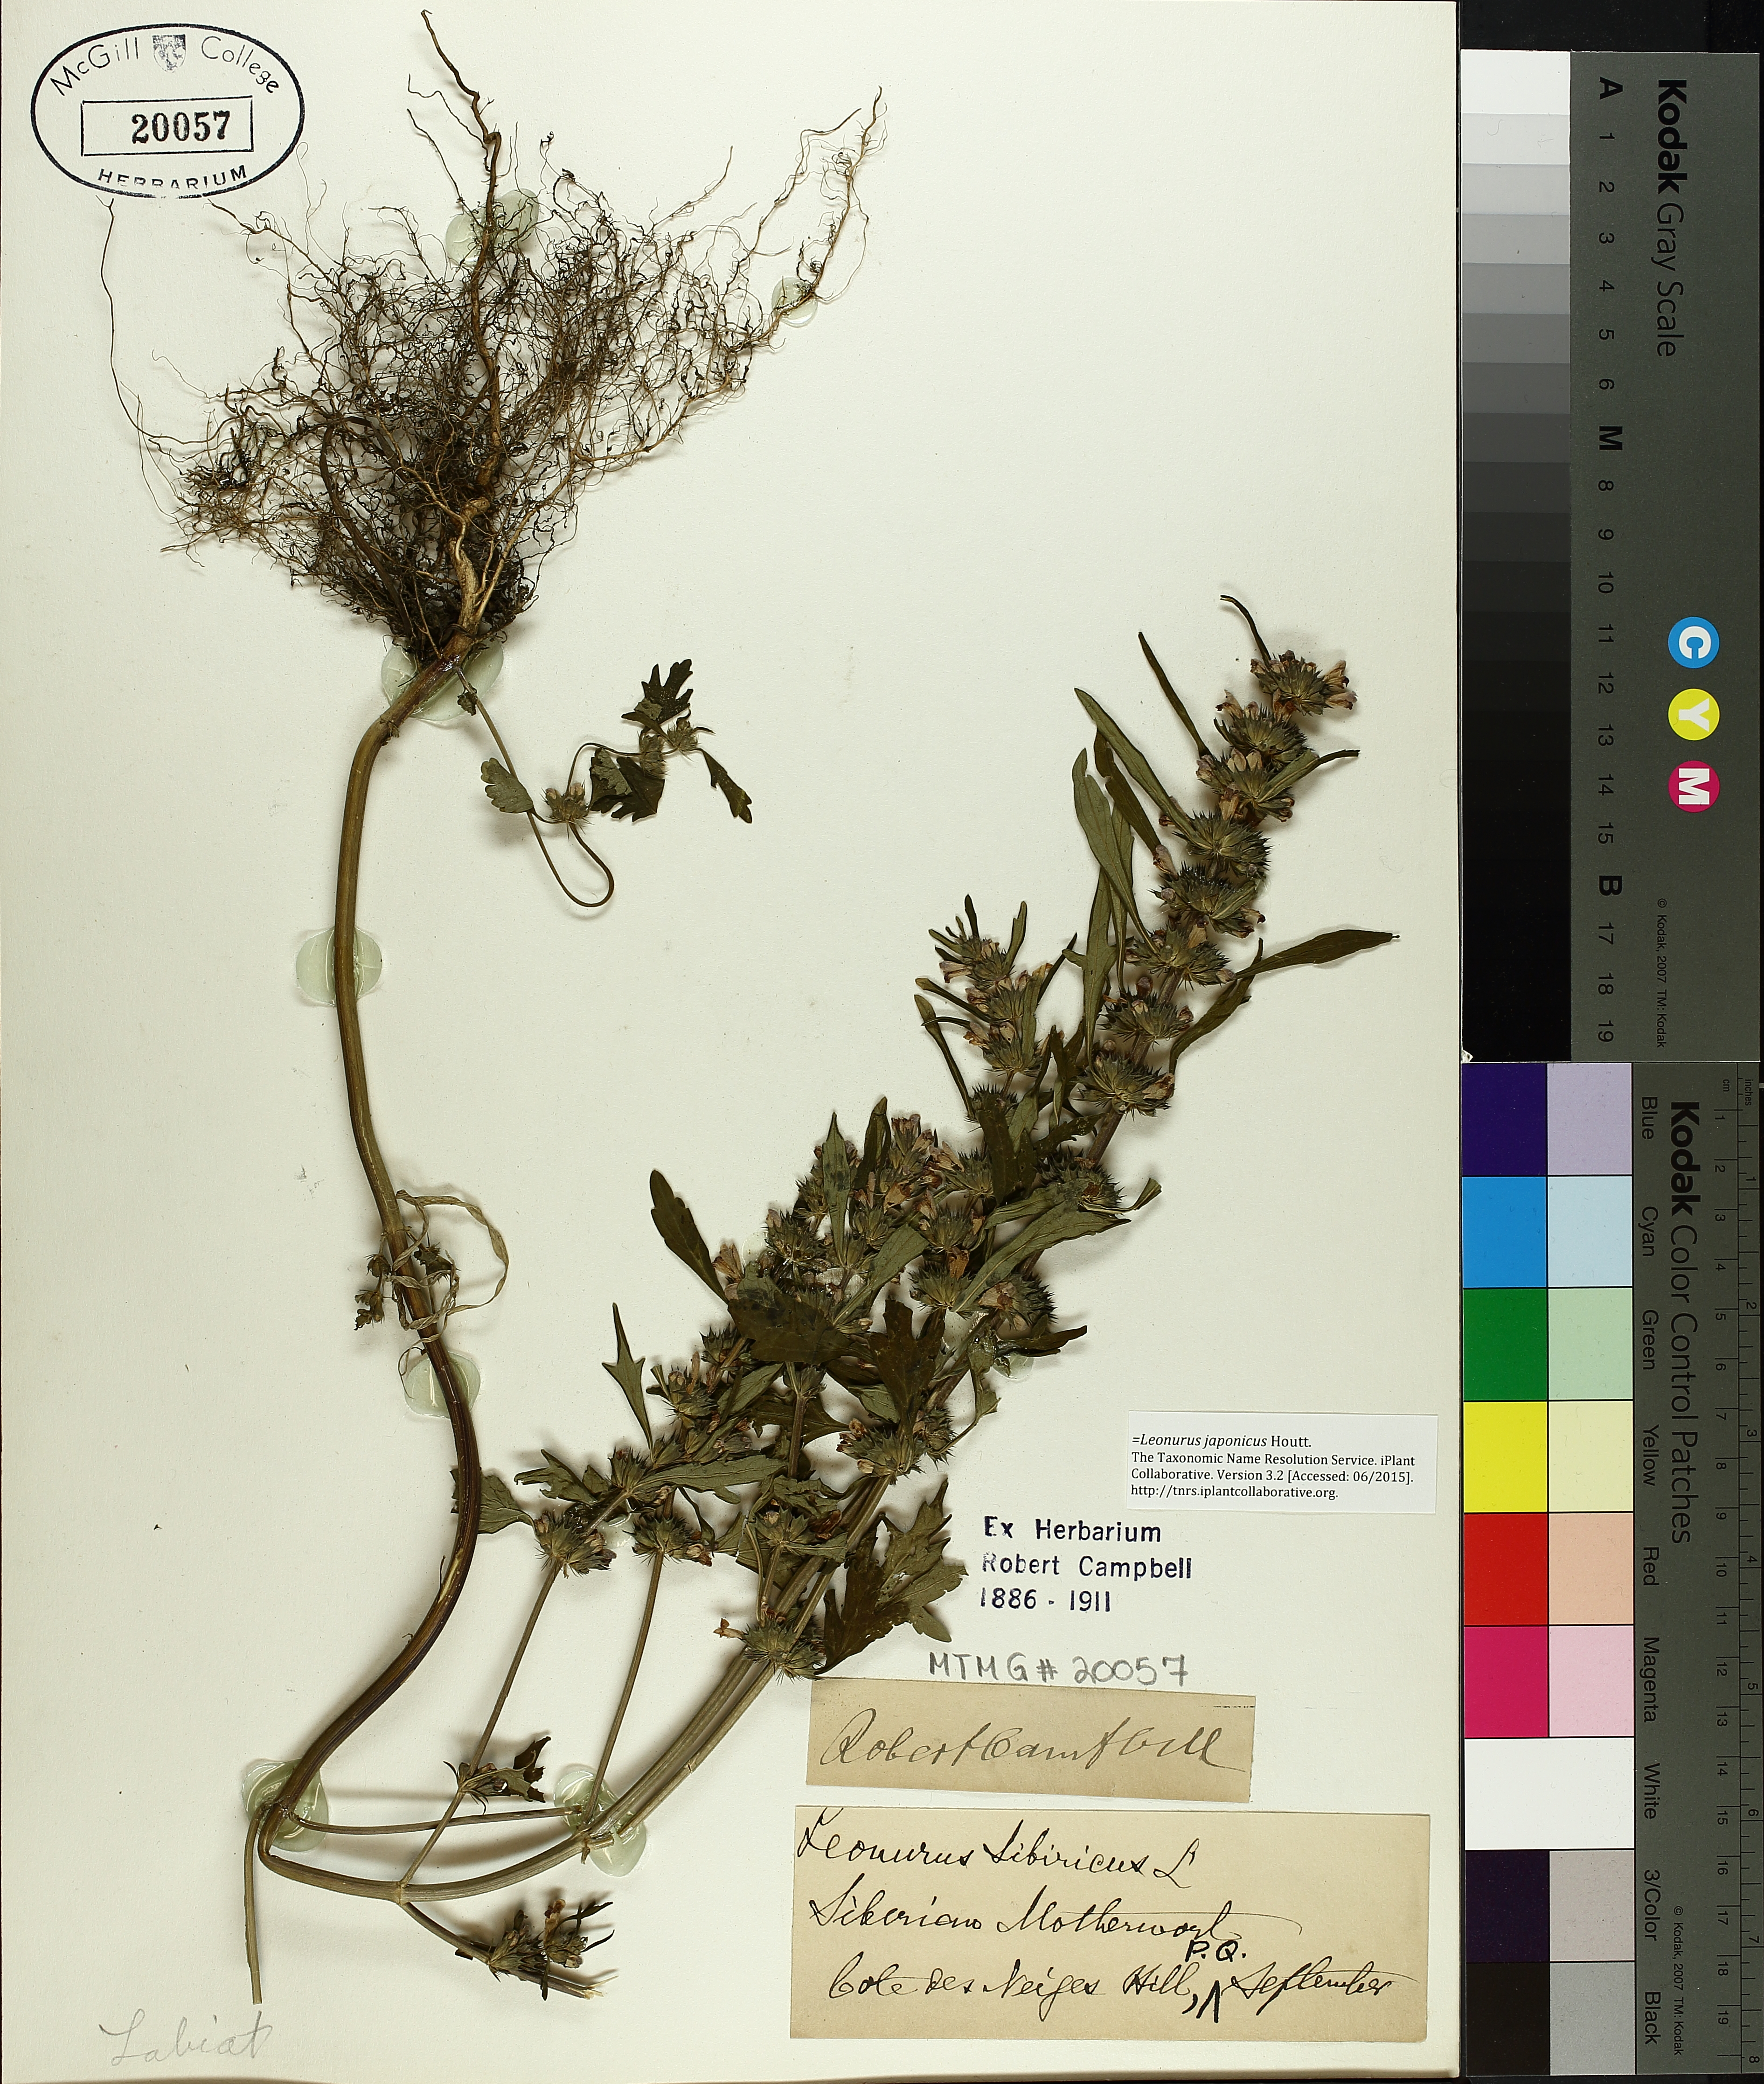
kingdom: Plantae
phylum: Tracheophyta
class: Magnoliopsida
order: Lamiales
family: Lamiaceae
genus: Leonurus
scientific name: Leonurus japonicus
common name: Honeyweed
